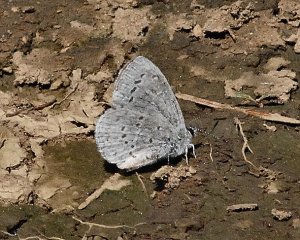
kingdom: Animalia
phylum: Arthropoda
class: Insecta
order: Lepidoptera
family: Lycaenidae
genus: Celastrina
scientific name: Celastrina
